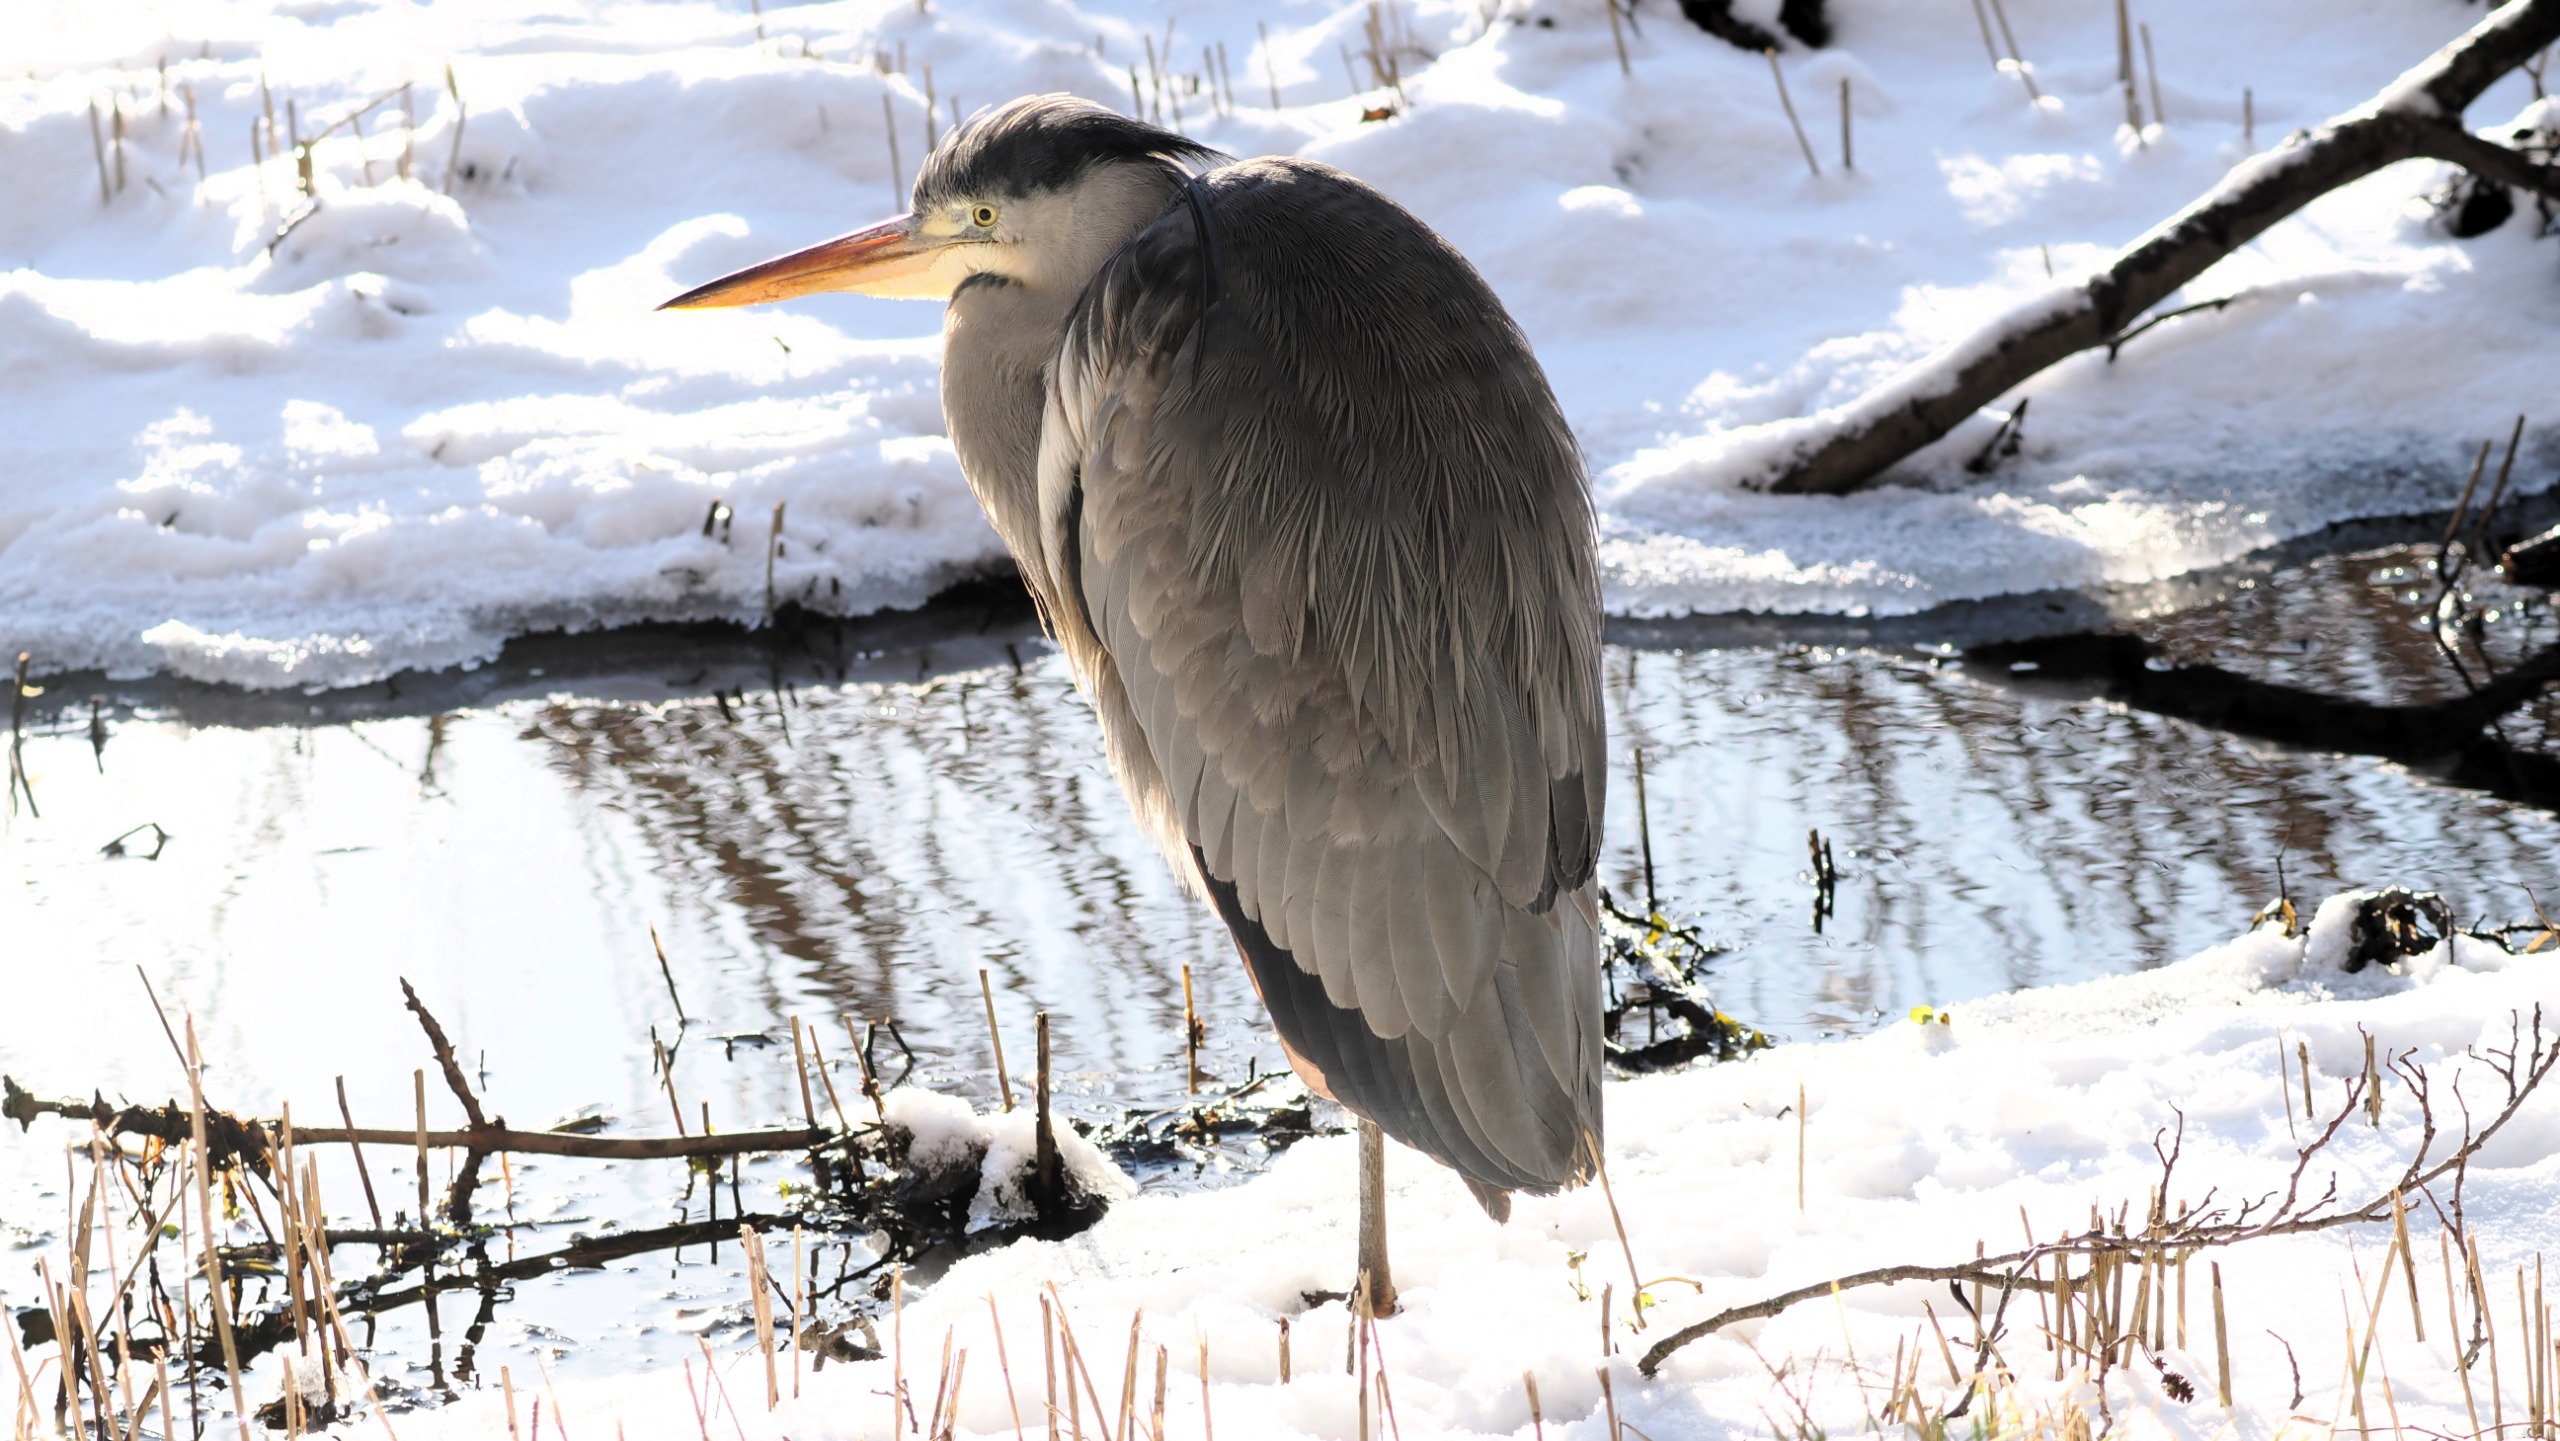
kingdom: Animalia
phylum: Chordata
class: Aves
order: Pelecaniformes
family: Ardeidae
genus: Ardea
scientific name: Ardea cinerea
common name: Fiskehejre
